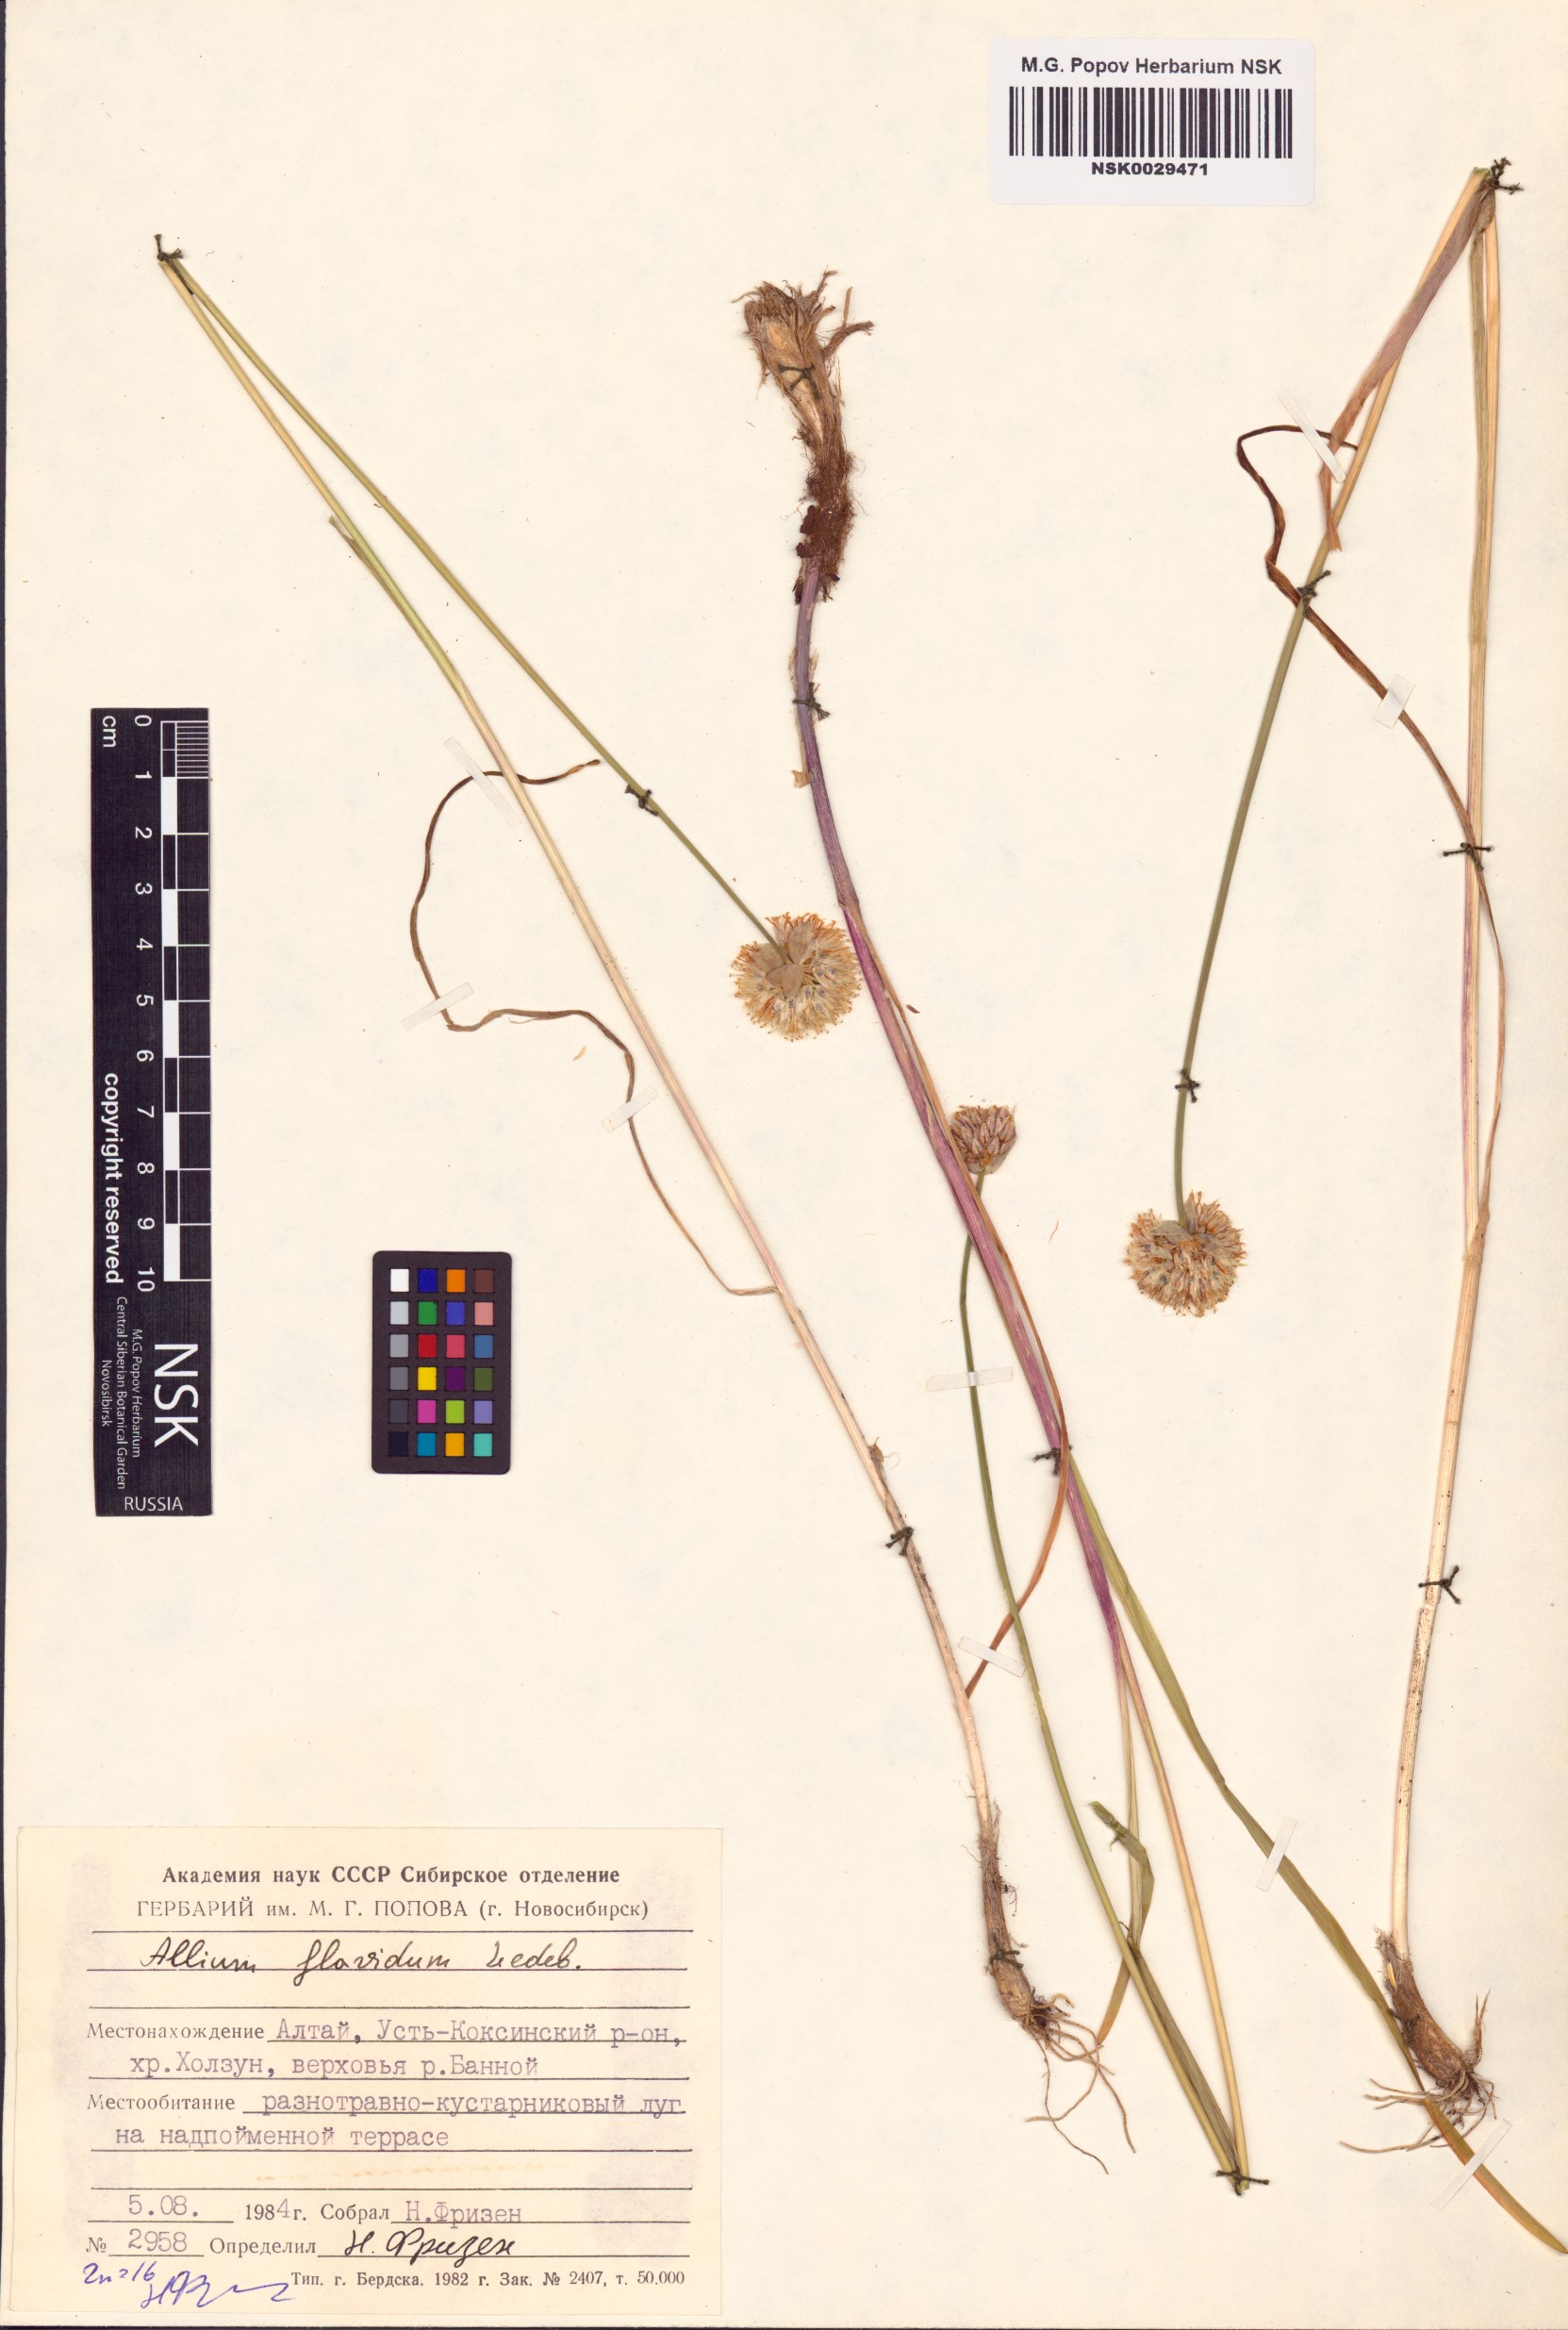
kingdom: Plantae
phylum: Tracheophyta
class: Liliopsida
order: Asparagales
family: Amaryllidaceae
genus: Allium
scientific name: Allium flavidum
